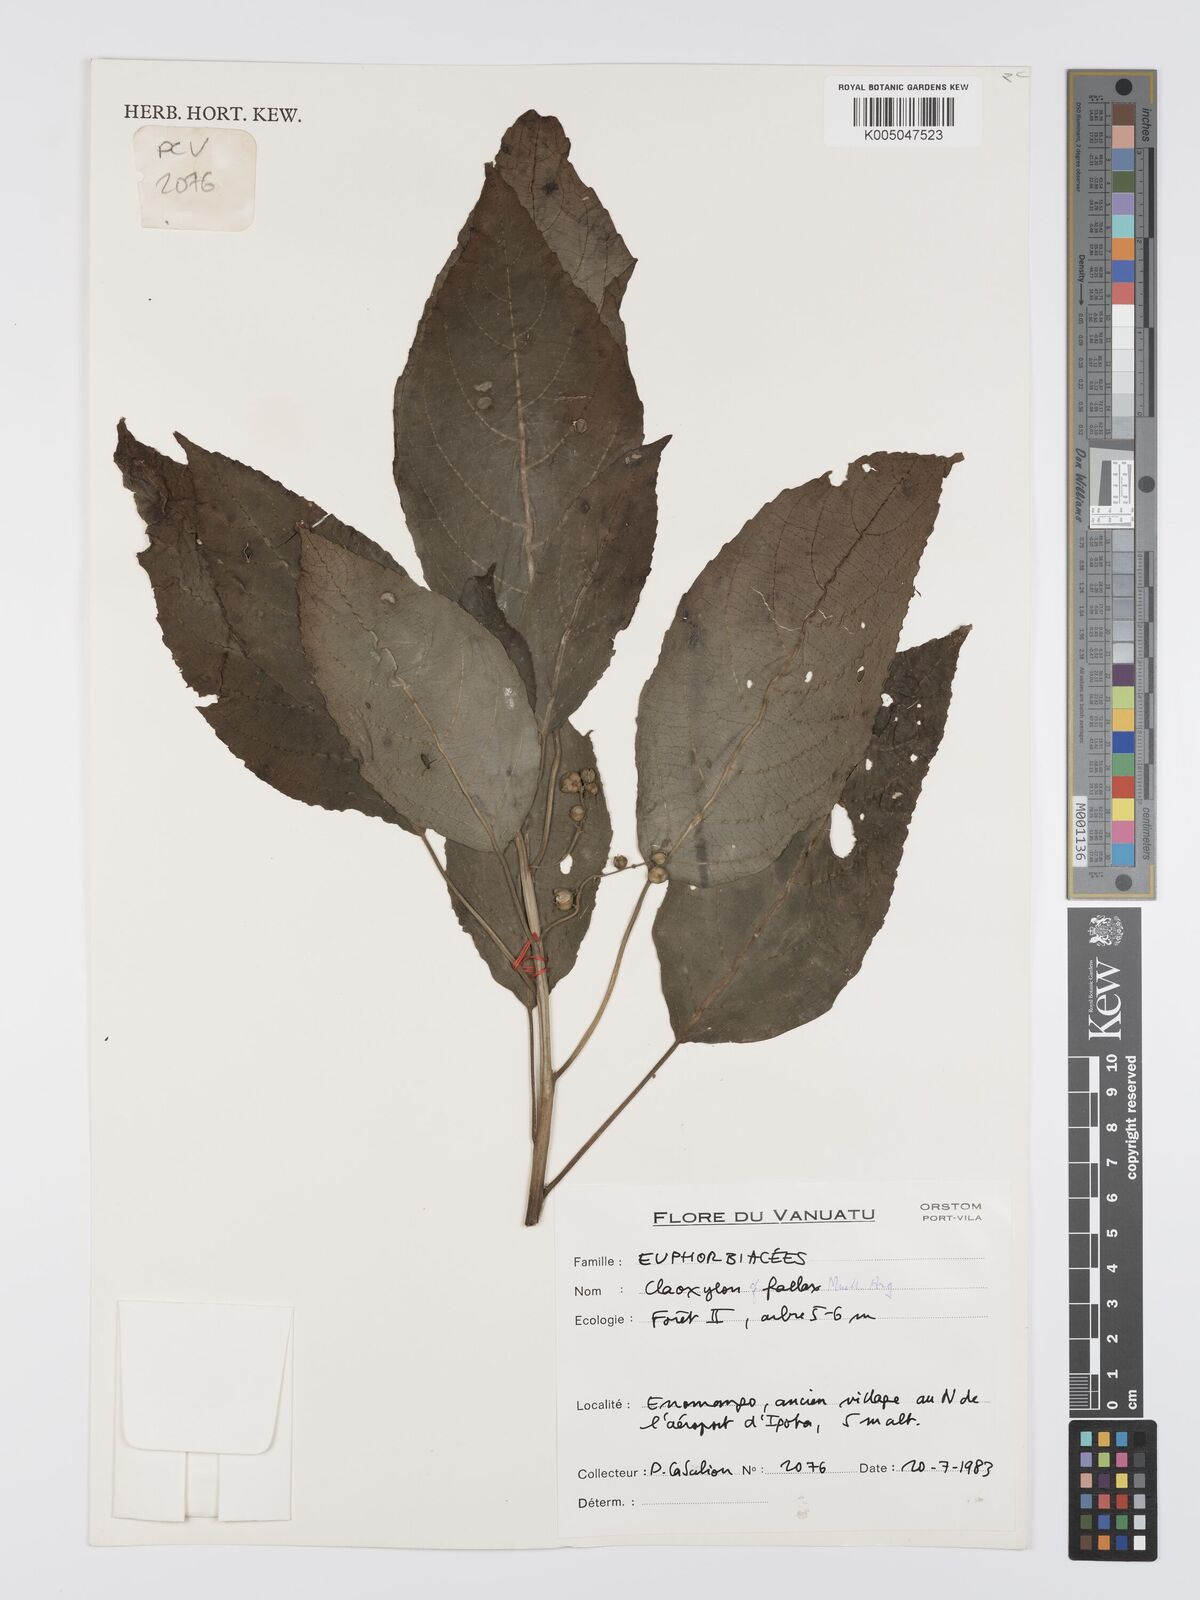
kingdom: Plantae
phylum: Tracheophyta
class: Magnoliopsida
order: Malpighiales
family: Euphorbiaceae
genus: Claoxylon
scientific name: Claoxylon fallax
